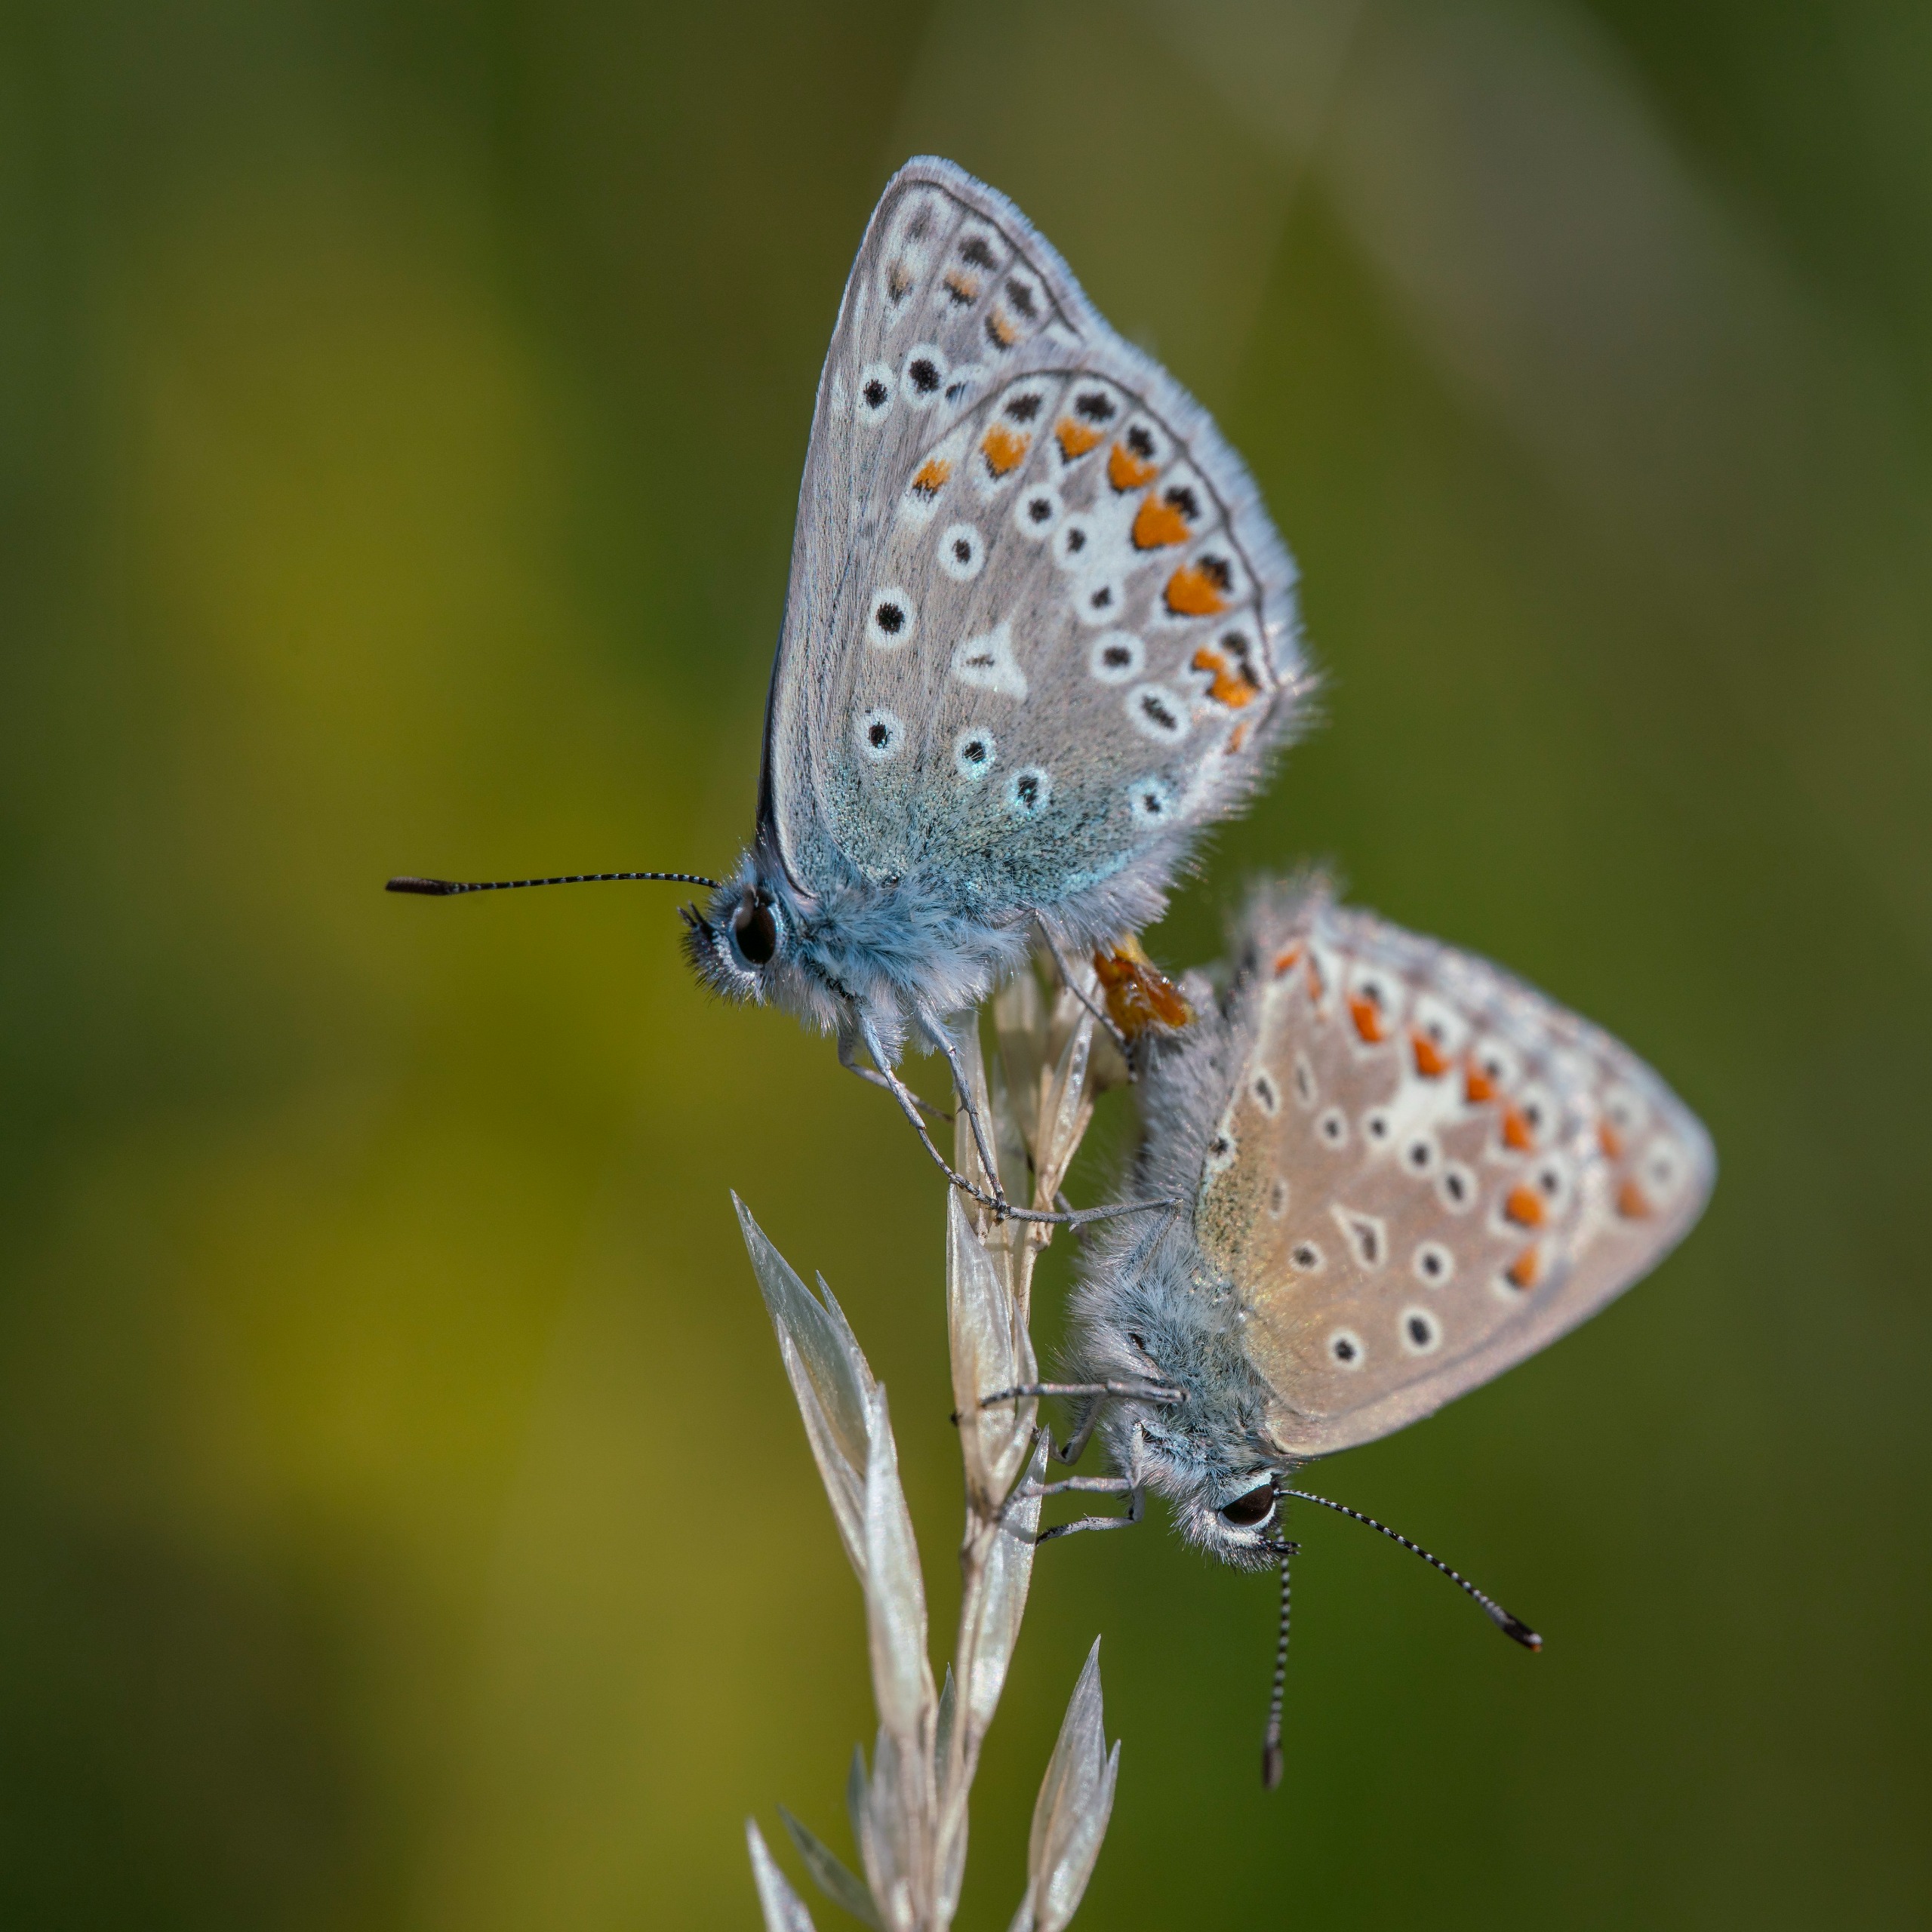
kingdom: Animalia
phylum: Arthropoda
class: Insecta
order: Lepidoptera
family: Lycaenidae
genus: Polyommatus
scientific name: Polyommatus icarus
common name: Almindelig blåfugl
